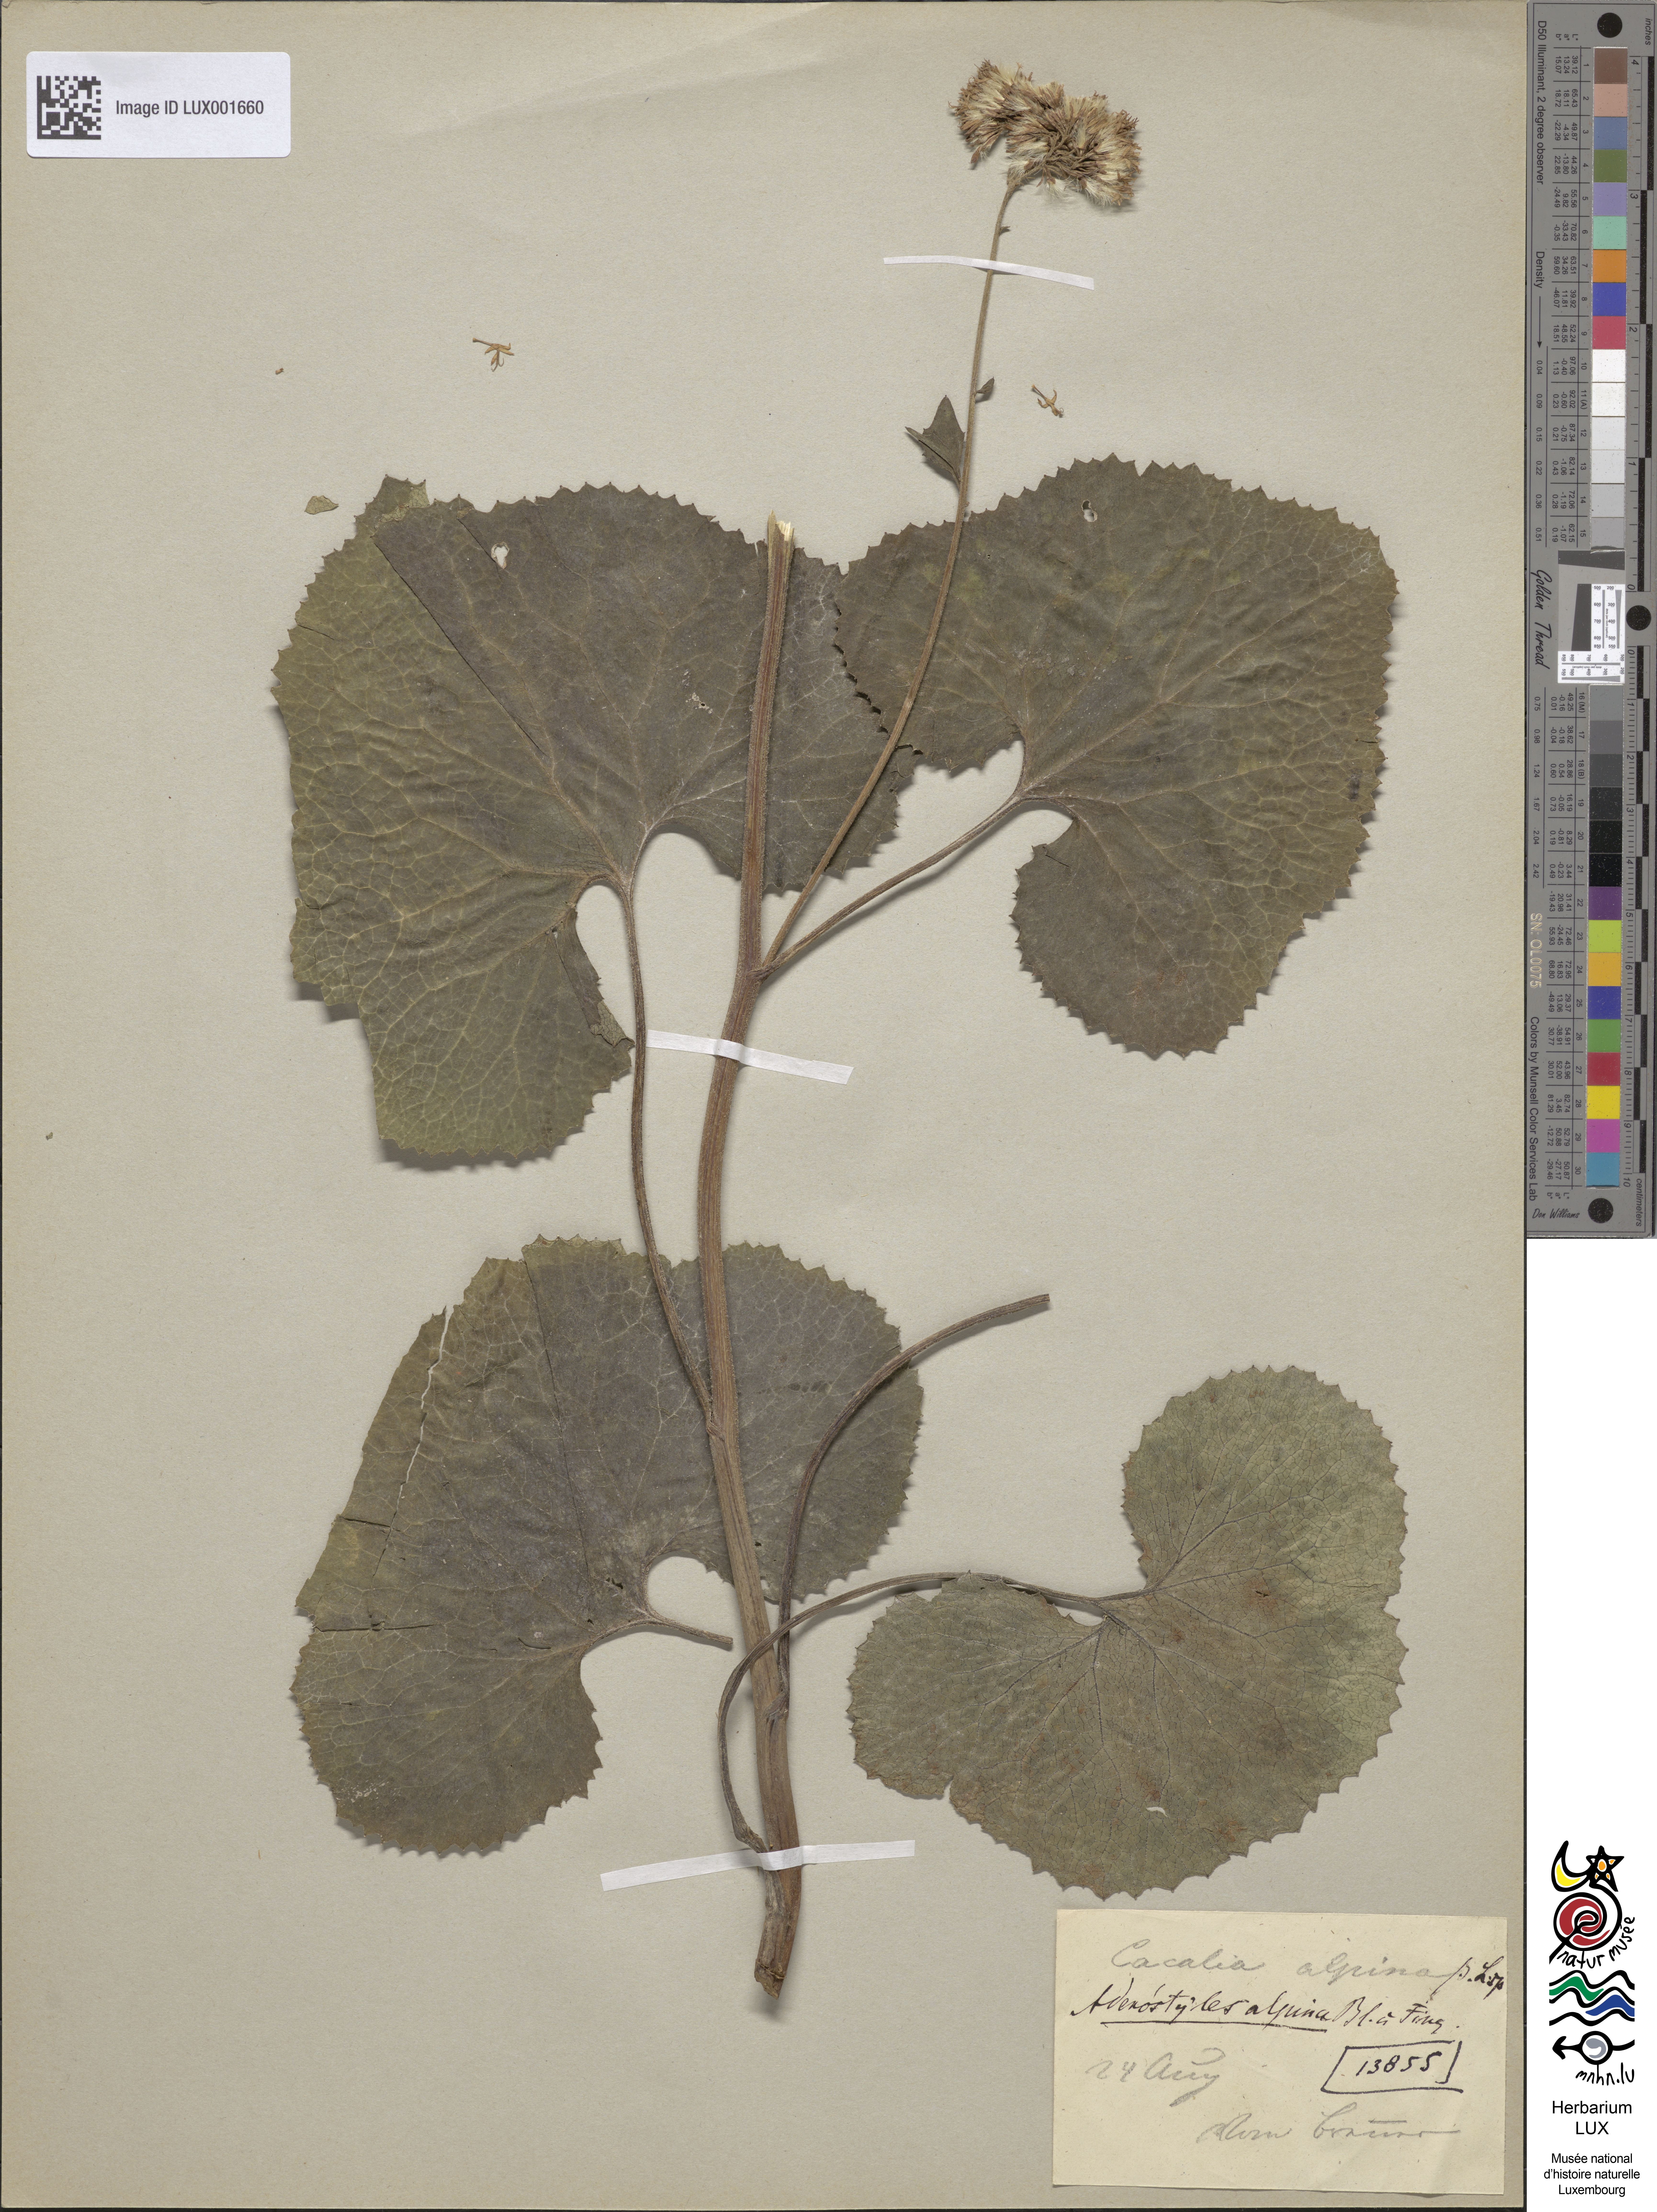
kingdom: Plantae
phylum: Tracheophyta
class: Magnoliopsida
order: Asterales
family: Asteraceae
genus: Adenostyles
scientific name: Adenostyles alpina
